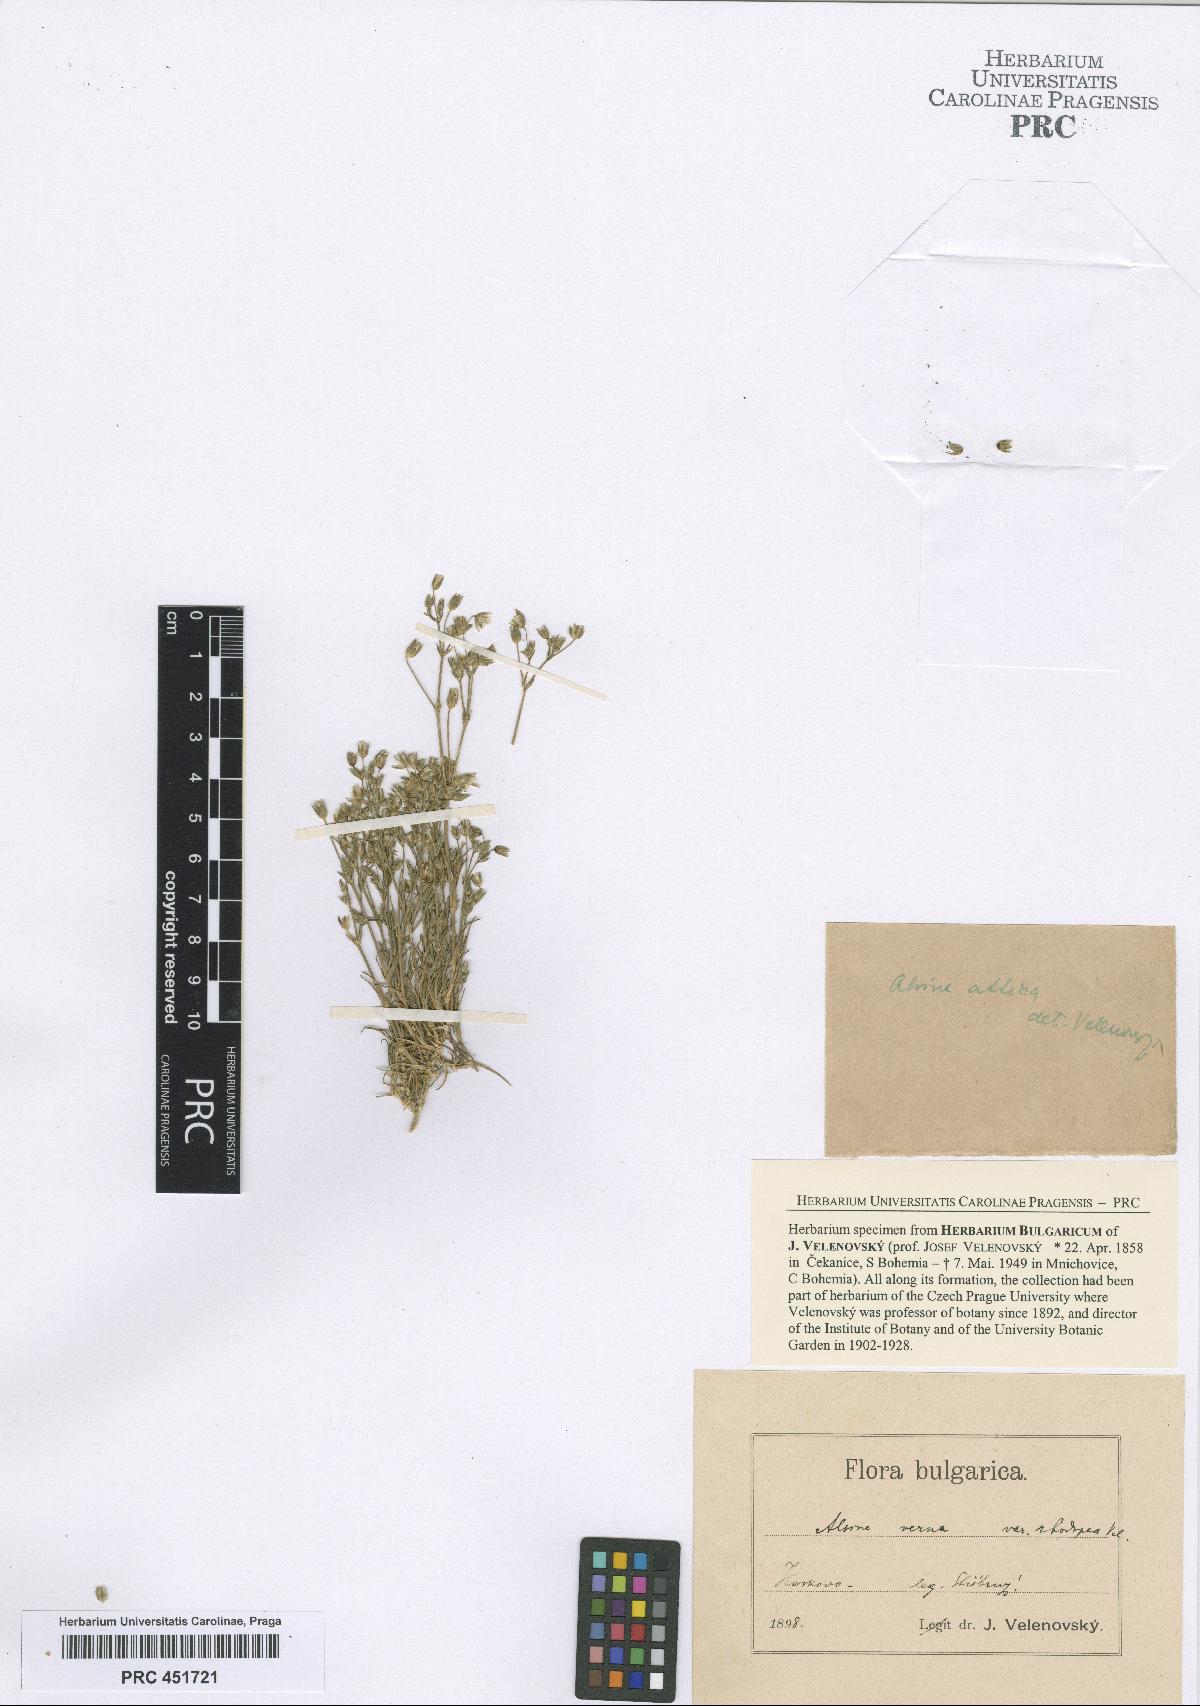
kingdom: Plantae
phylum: Tracheophyta
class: Magnoliopsida
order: Caryophyllales
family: Caryophyllaceae
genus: Sabulina
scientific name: Sabulina verna
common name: Spring sandwort
